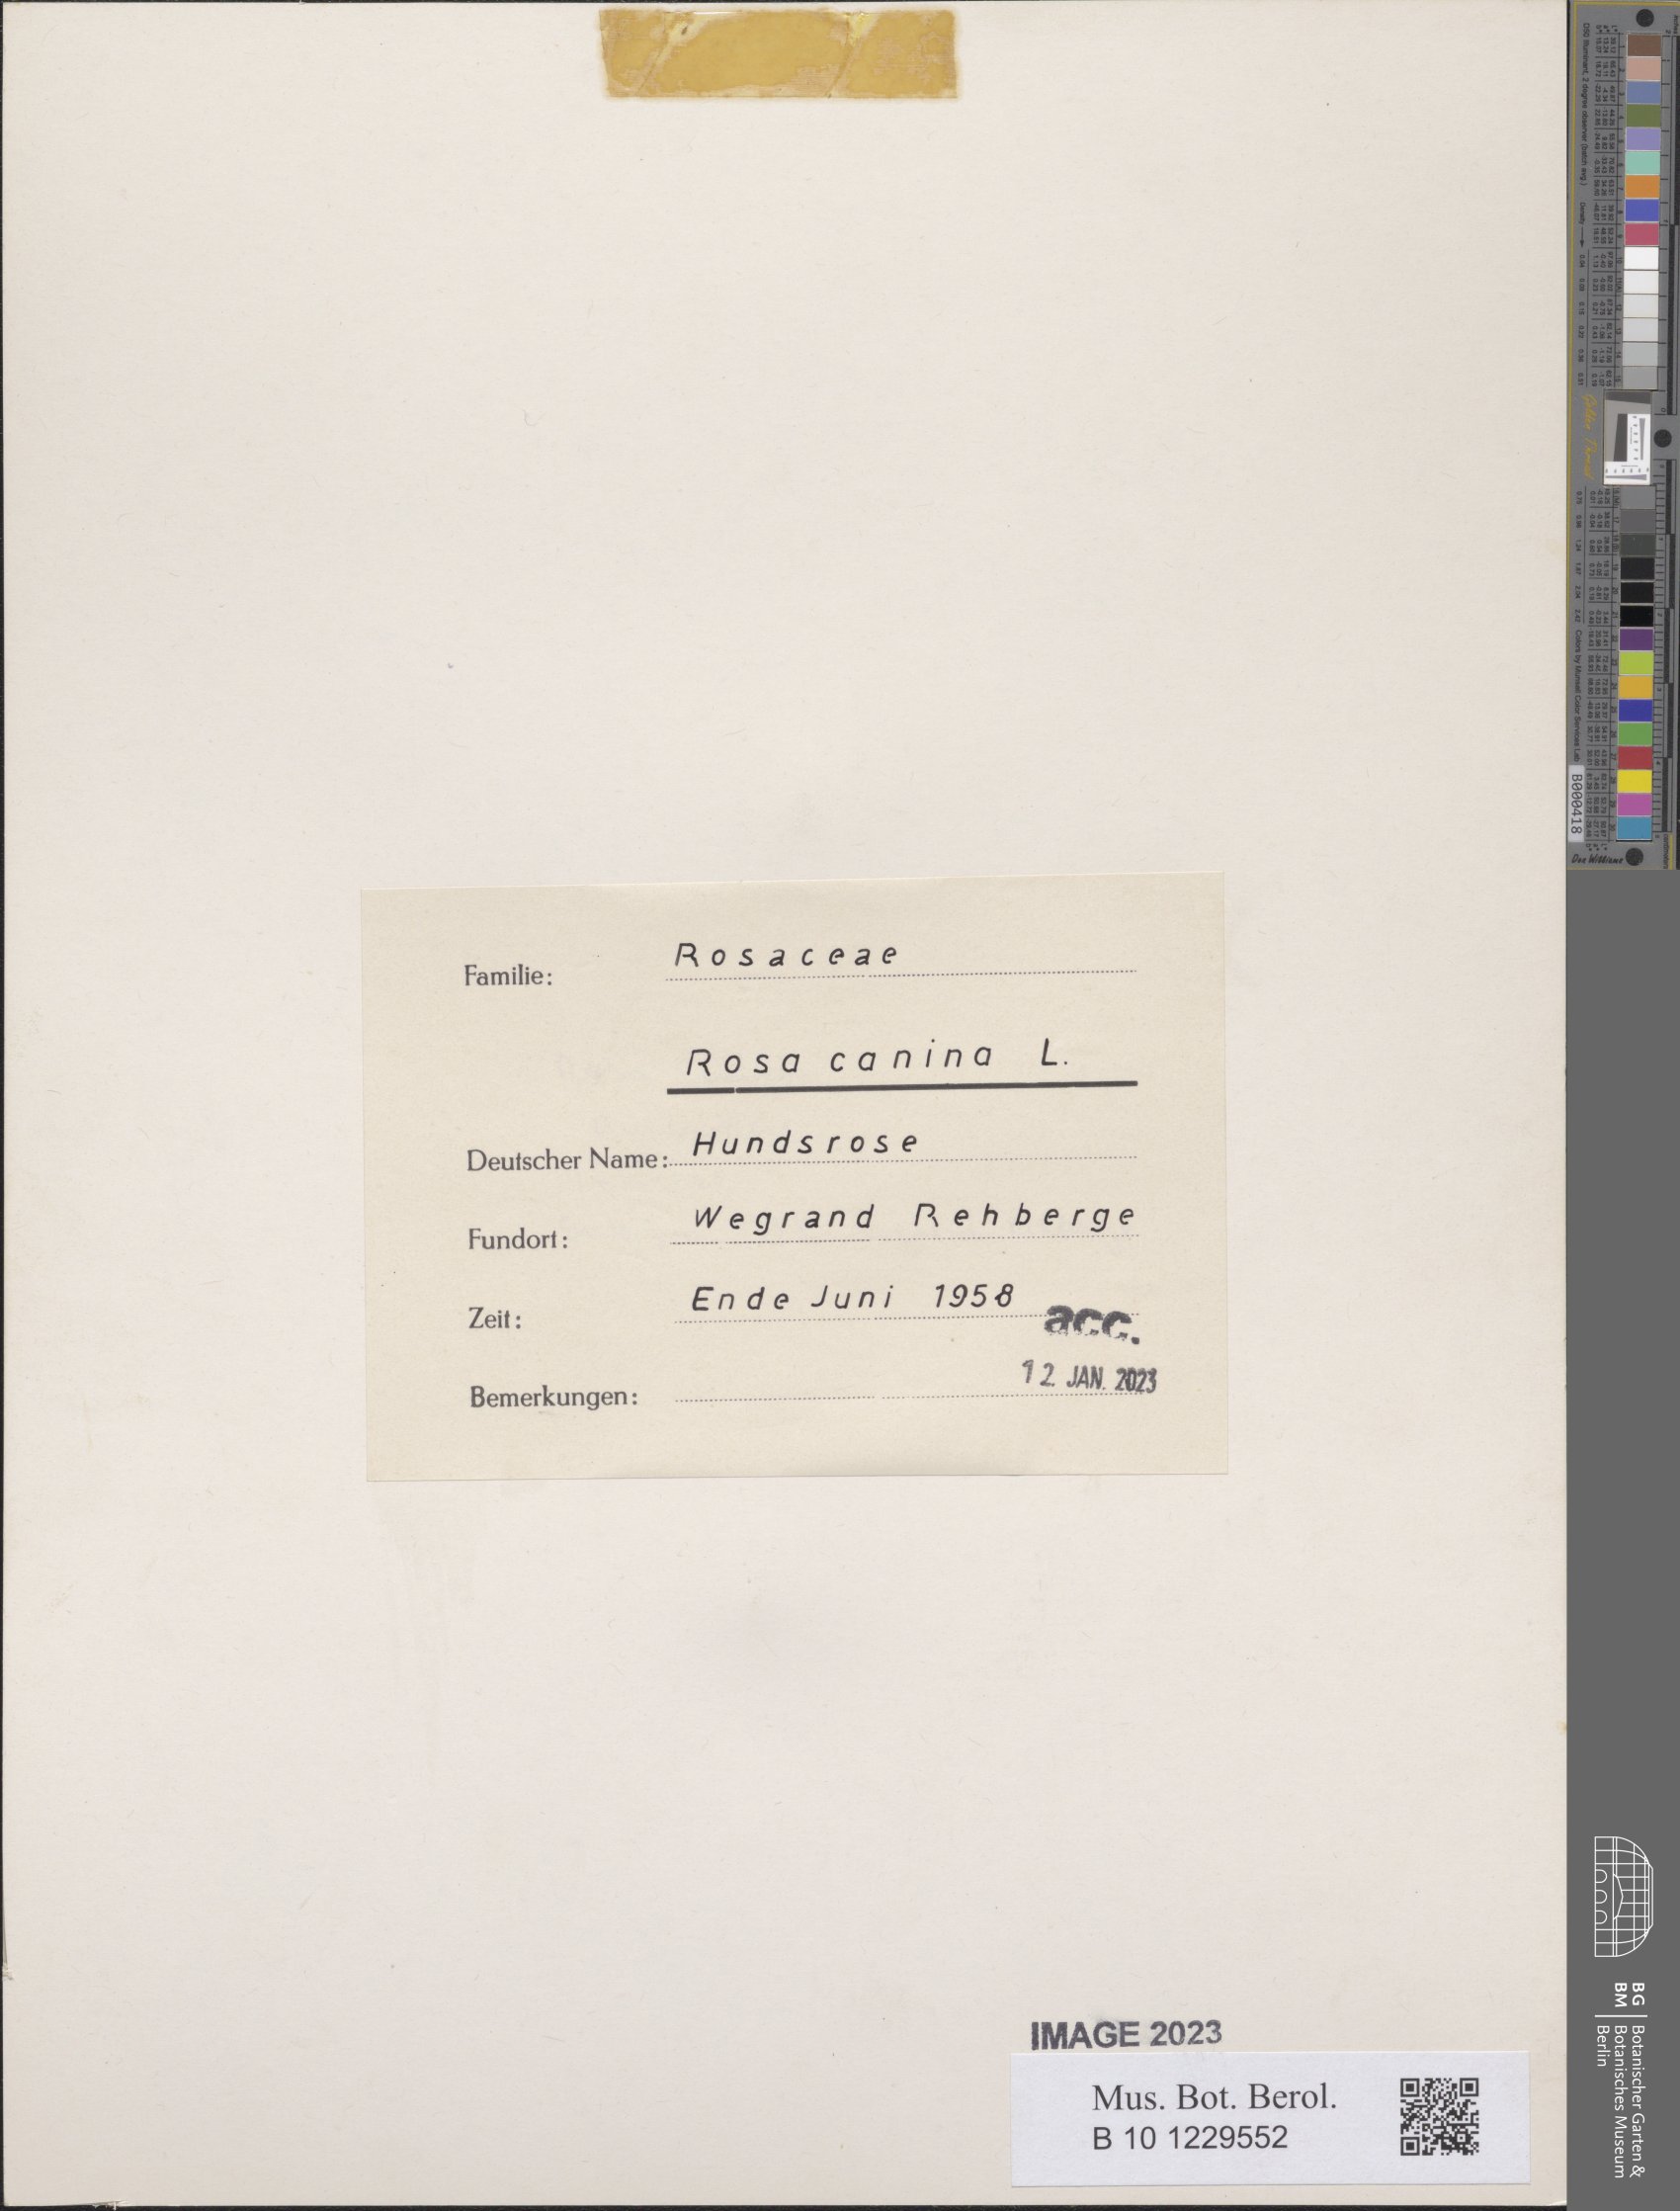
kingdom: Plantae
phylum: Tracheophyta
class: Magnoliopsida
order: Rosales
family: Rosaceae
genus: Rosa
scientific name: Rosa canina
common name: Dog rose
